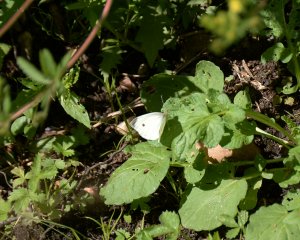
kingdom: Animalia
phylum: Arthropoda
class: Insecta
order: Lepidoptera
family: Pieridae
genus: Pieris
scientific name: Pieris rapae
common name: Cabbage White
